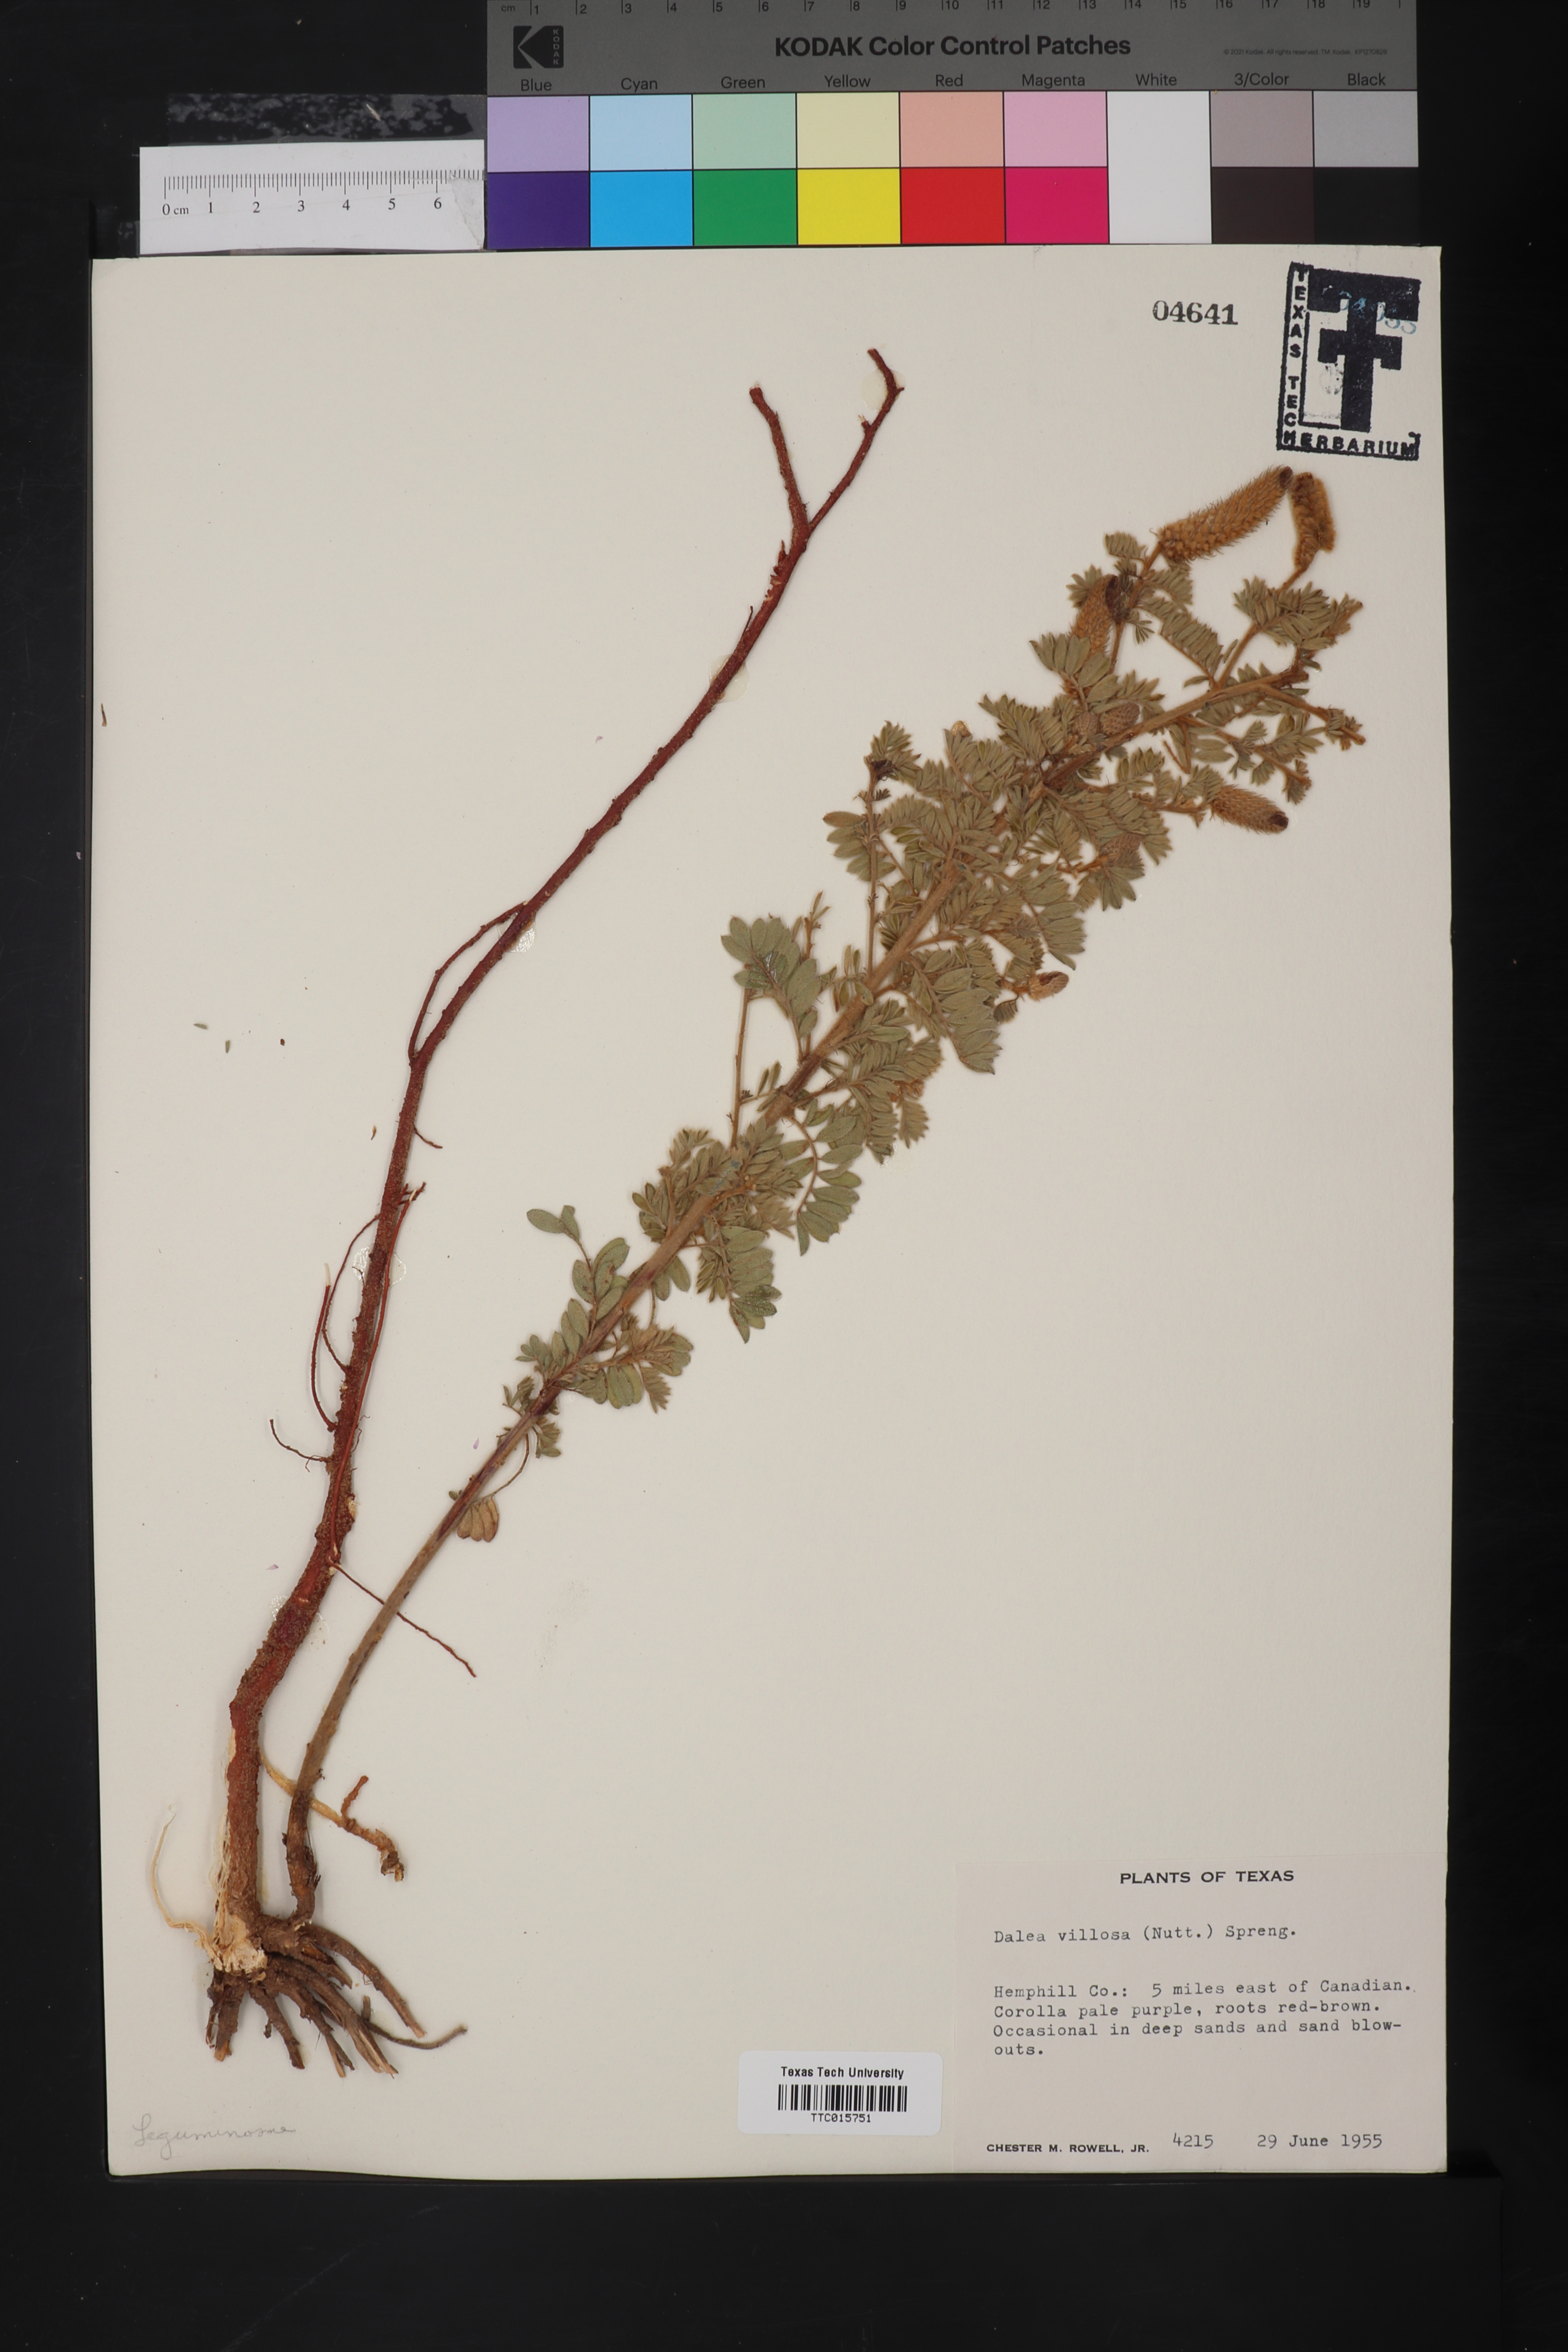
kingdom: Plantae
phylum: Tracheophyta
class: Magnoliopsida
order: Fabales
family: Fabaceae
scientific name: Fabaceae
